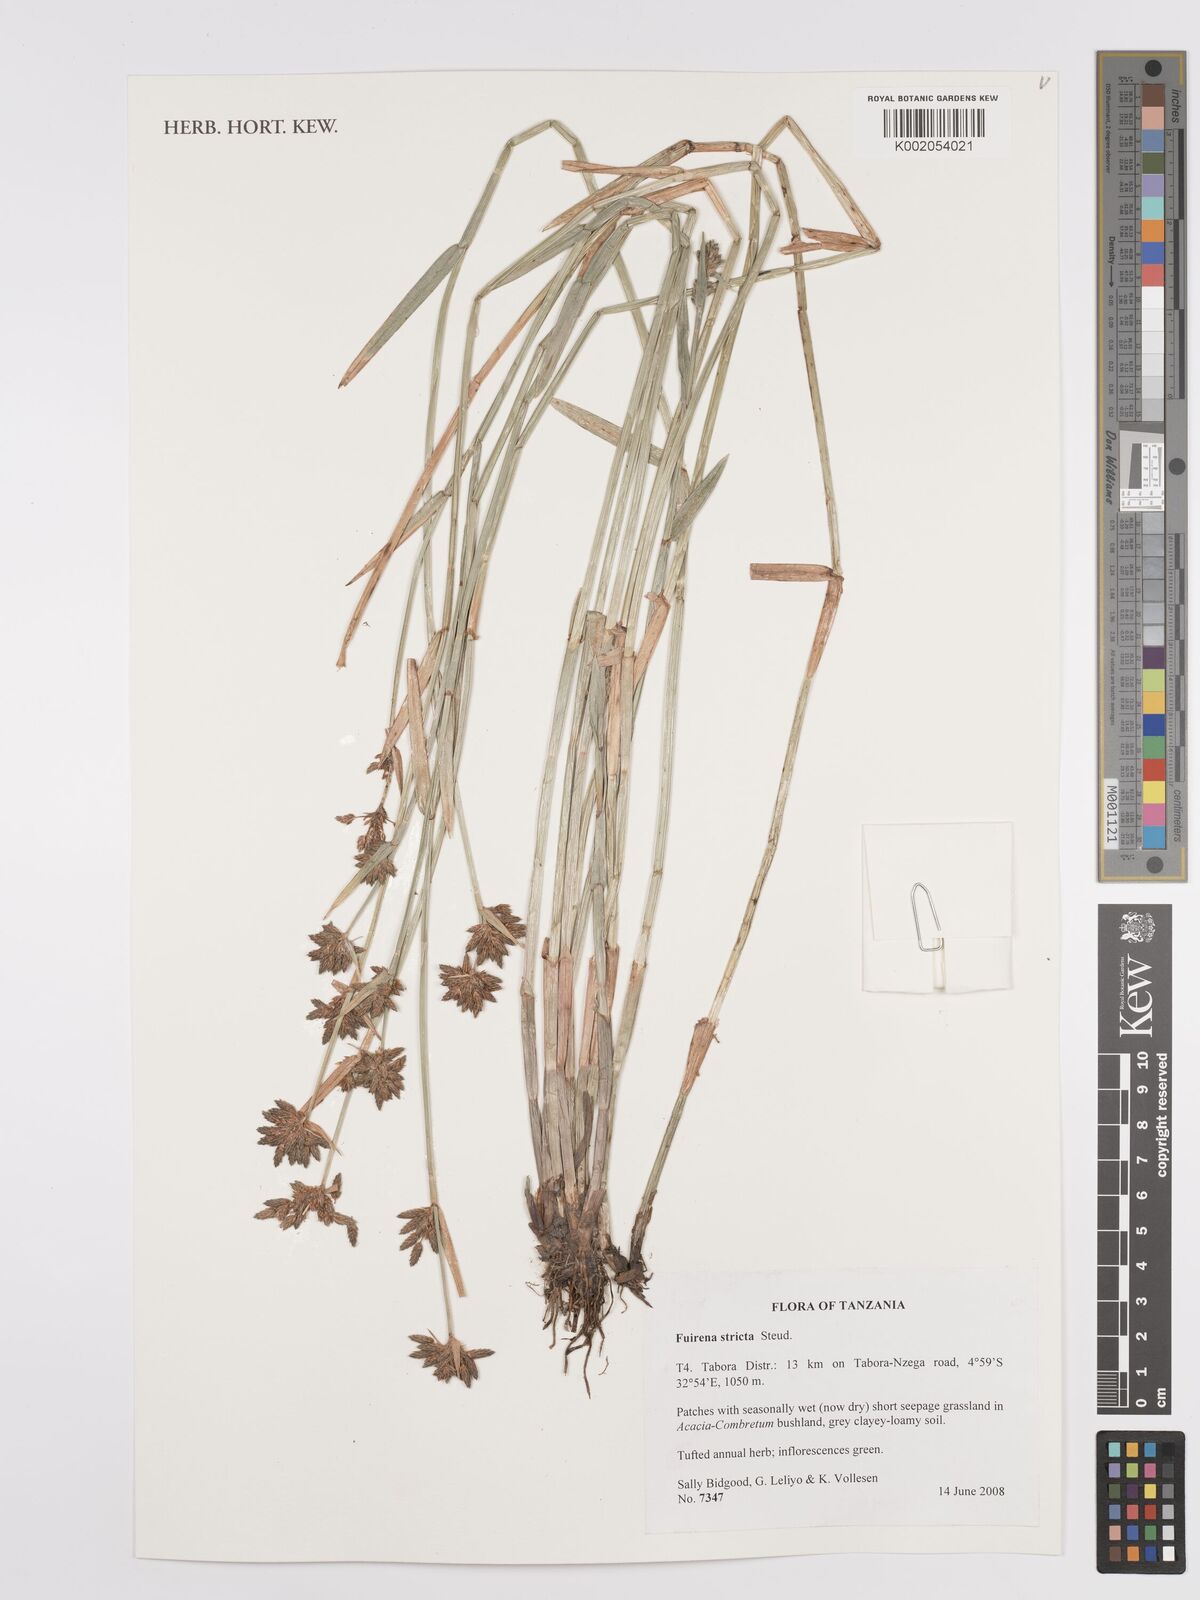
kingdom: Plantae
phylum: Tracheophyta
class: Liliopsida
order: Poales
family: Cyperaceae
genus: Fuirena
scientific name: Fuirena stricta
